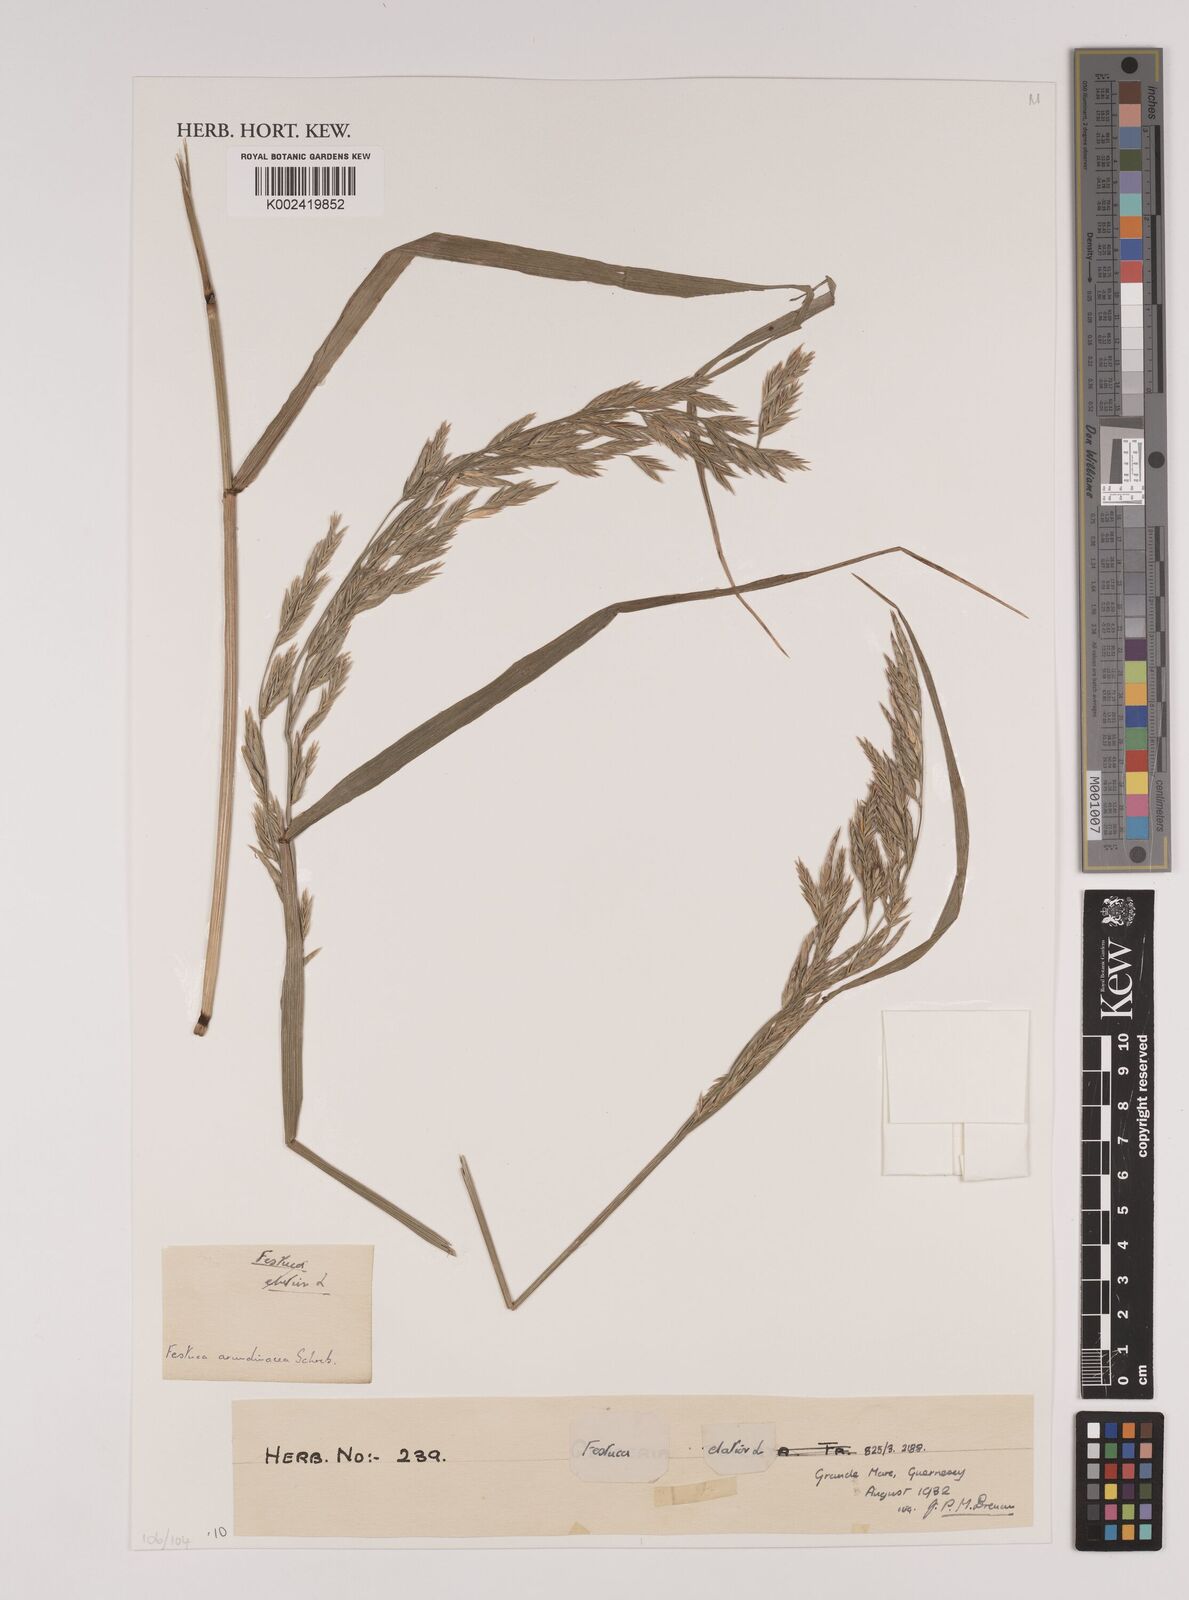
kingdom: Plantae
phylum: Tracheophyta
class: Liliopsida
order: Poales
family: Poaceae
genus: Lolium
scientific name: Lolium arundinaceum
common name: Reed fescue
